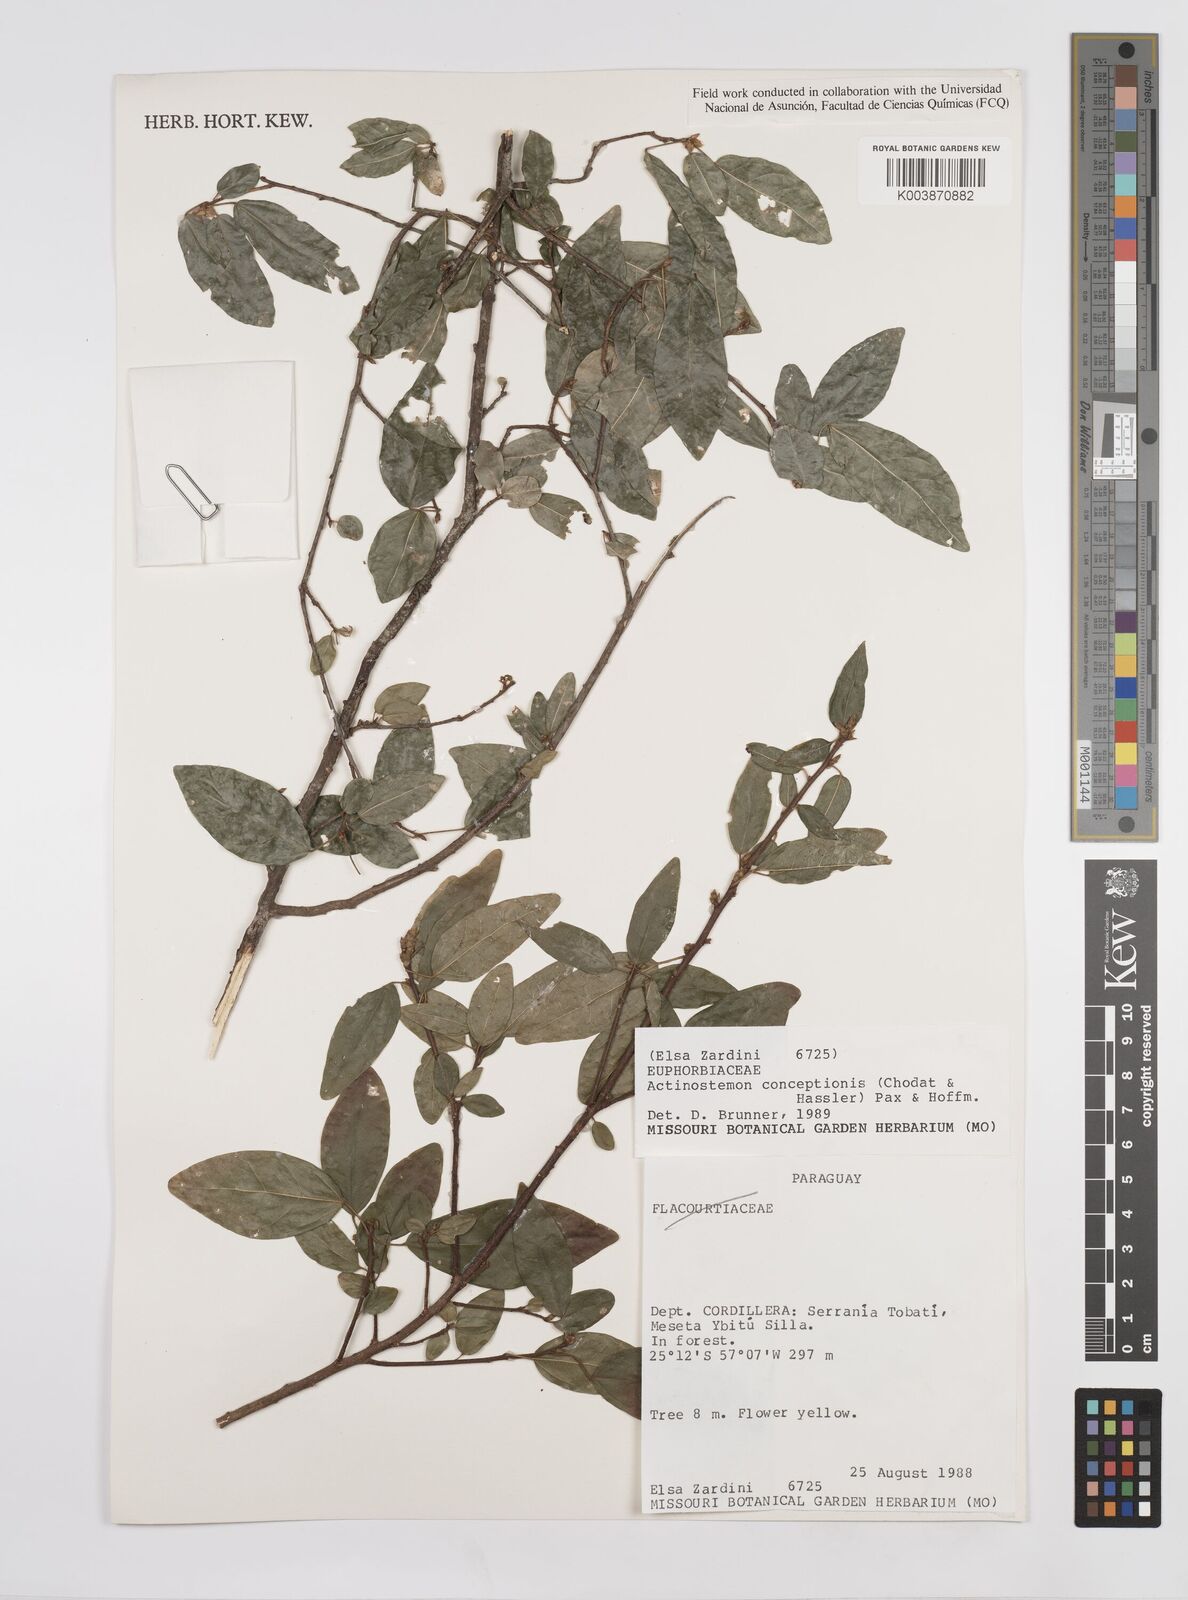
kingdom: Plantae
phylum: Tracheophyta
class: Magnoliopsida
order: Malpighiales
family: Euphorbiaceae
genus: Actinostemon
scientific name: Actinostemon concepcionis
